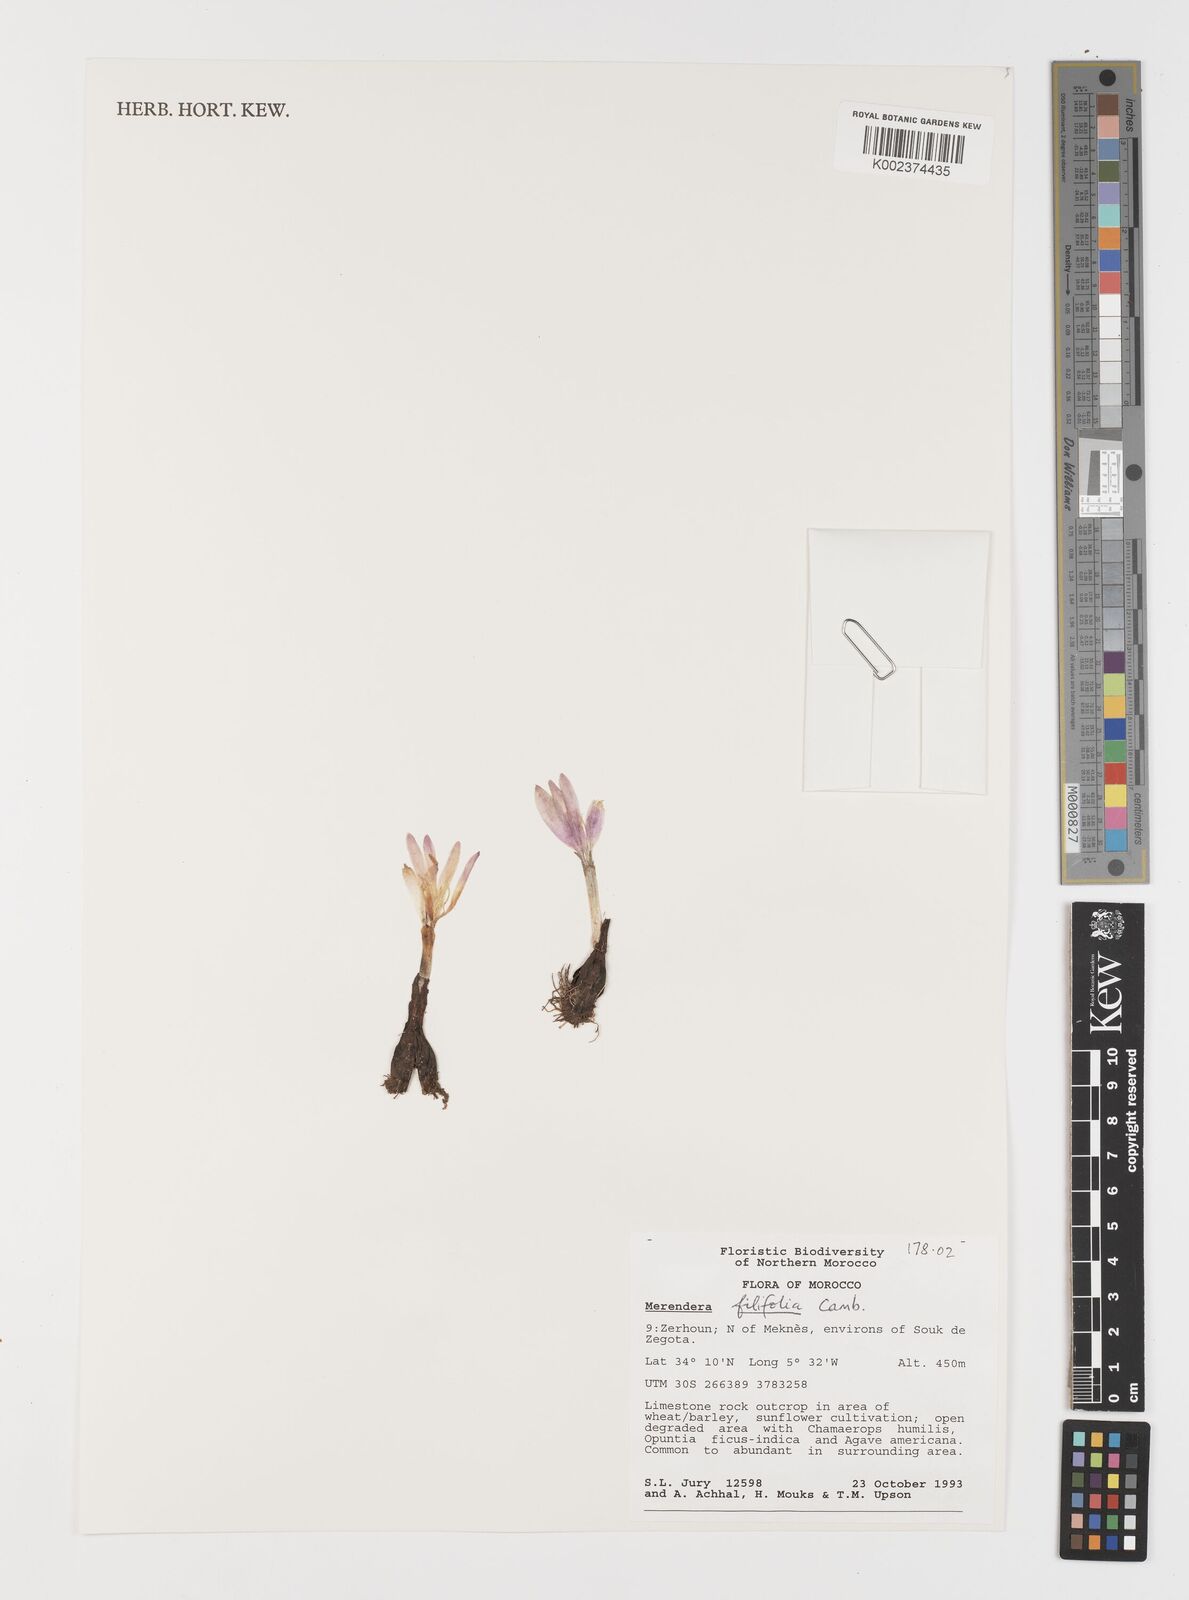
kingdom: Plantae
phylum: Tracheophyta
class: Liliopsida
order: Liliales
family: Colchicaceae
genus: Colchicum
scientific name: Colchicum filifolium
